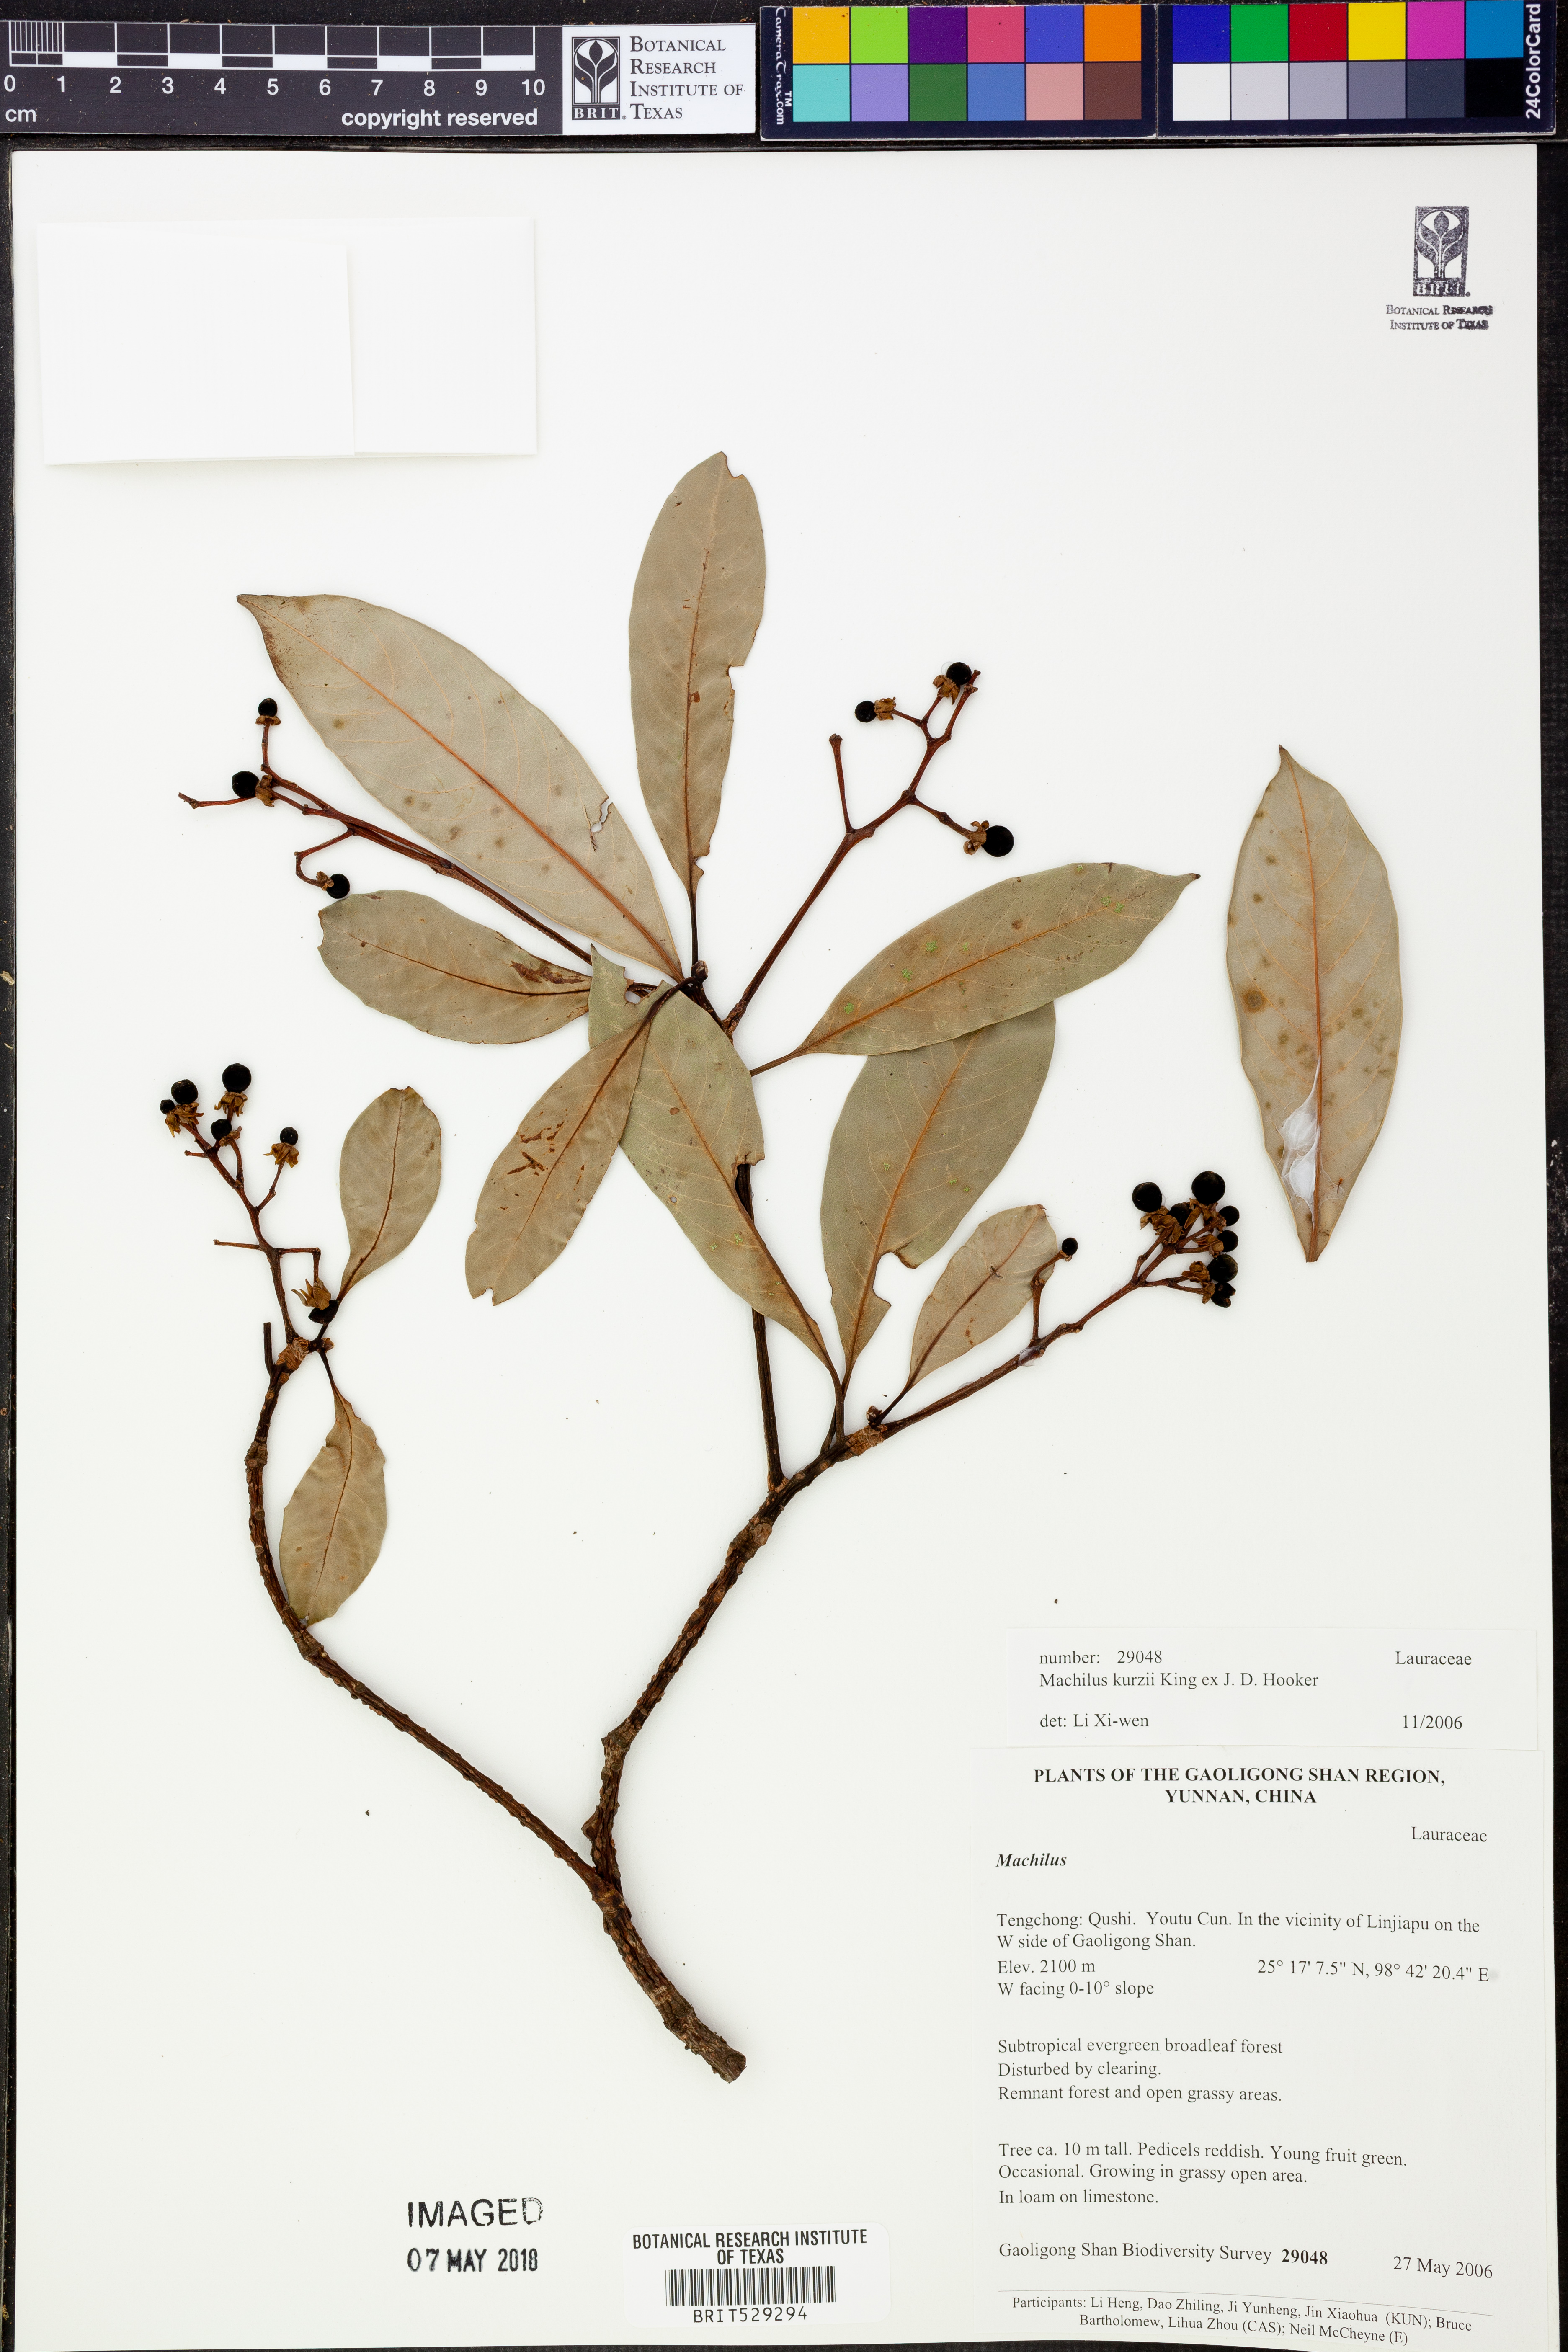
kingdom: Plantae
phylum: Tracheophyta
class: Magnoliopsida
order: Laurales
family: Lauraceae
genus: Machilus
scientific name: Machilus kurzii
